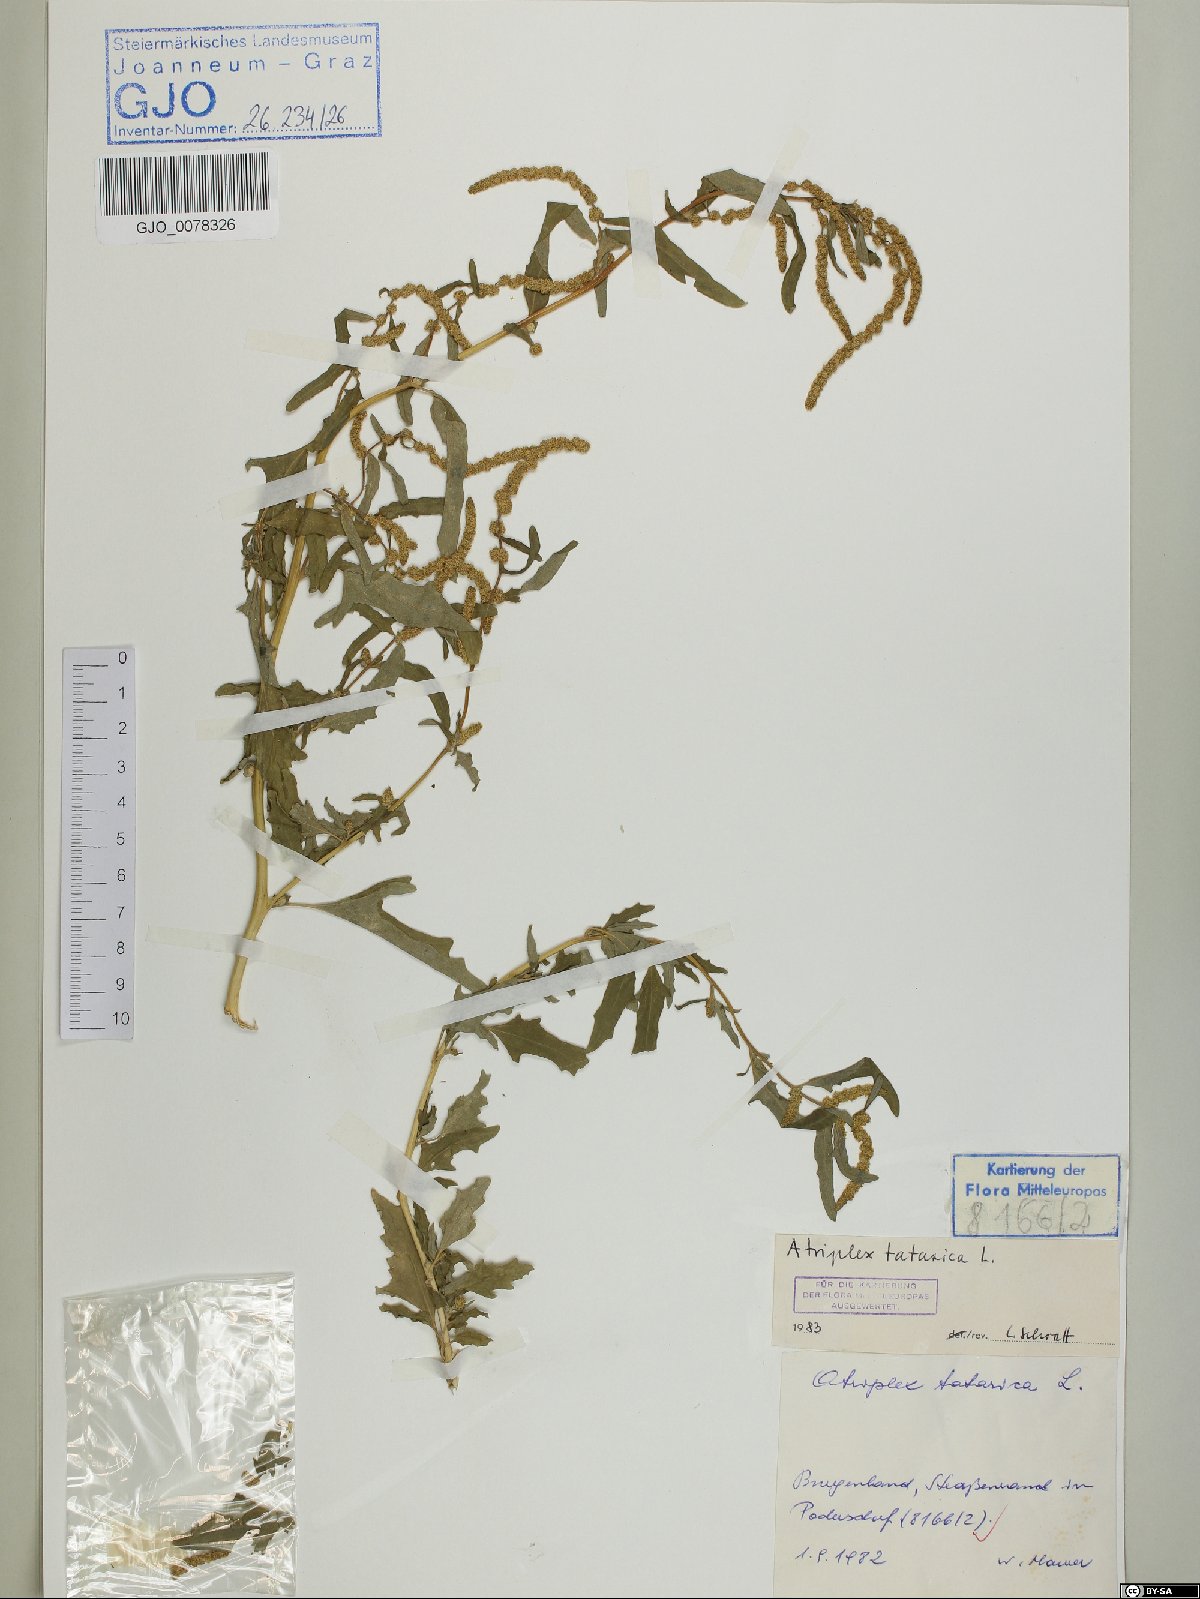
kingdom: Plantae
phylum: Tracheophyta
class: Magnoliopsida
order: Caryophyllales
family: Amaranthaceae
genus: Atriplex
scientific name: Atriplex tatarica
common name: Tatarian orache
